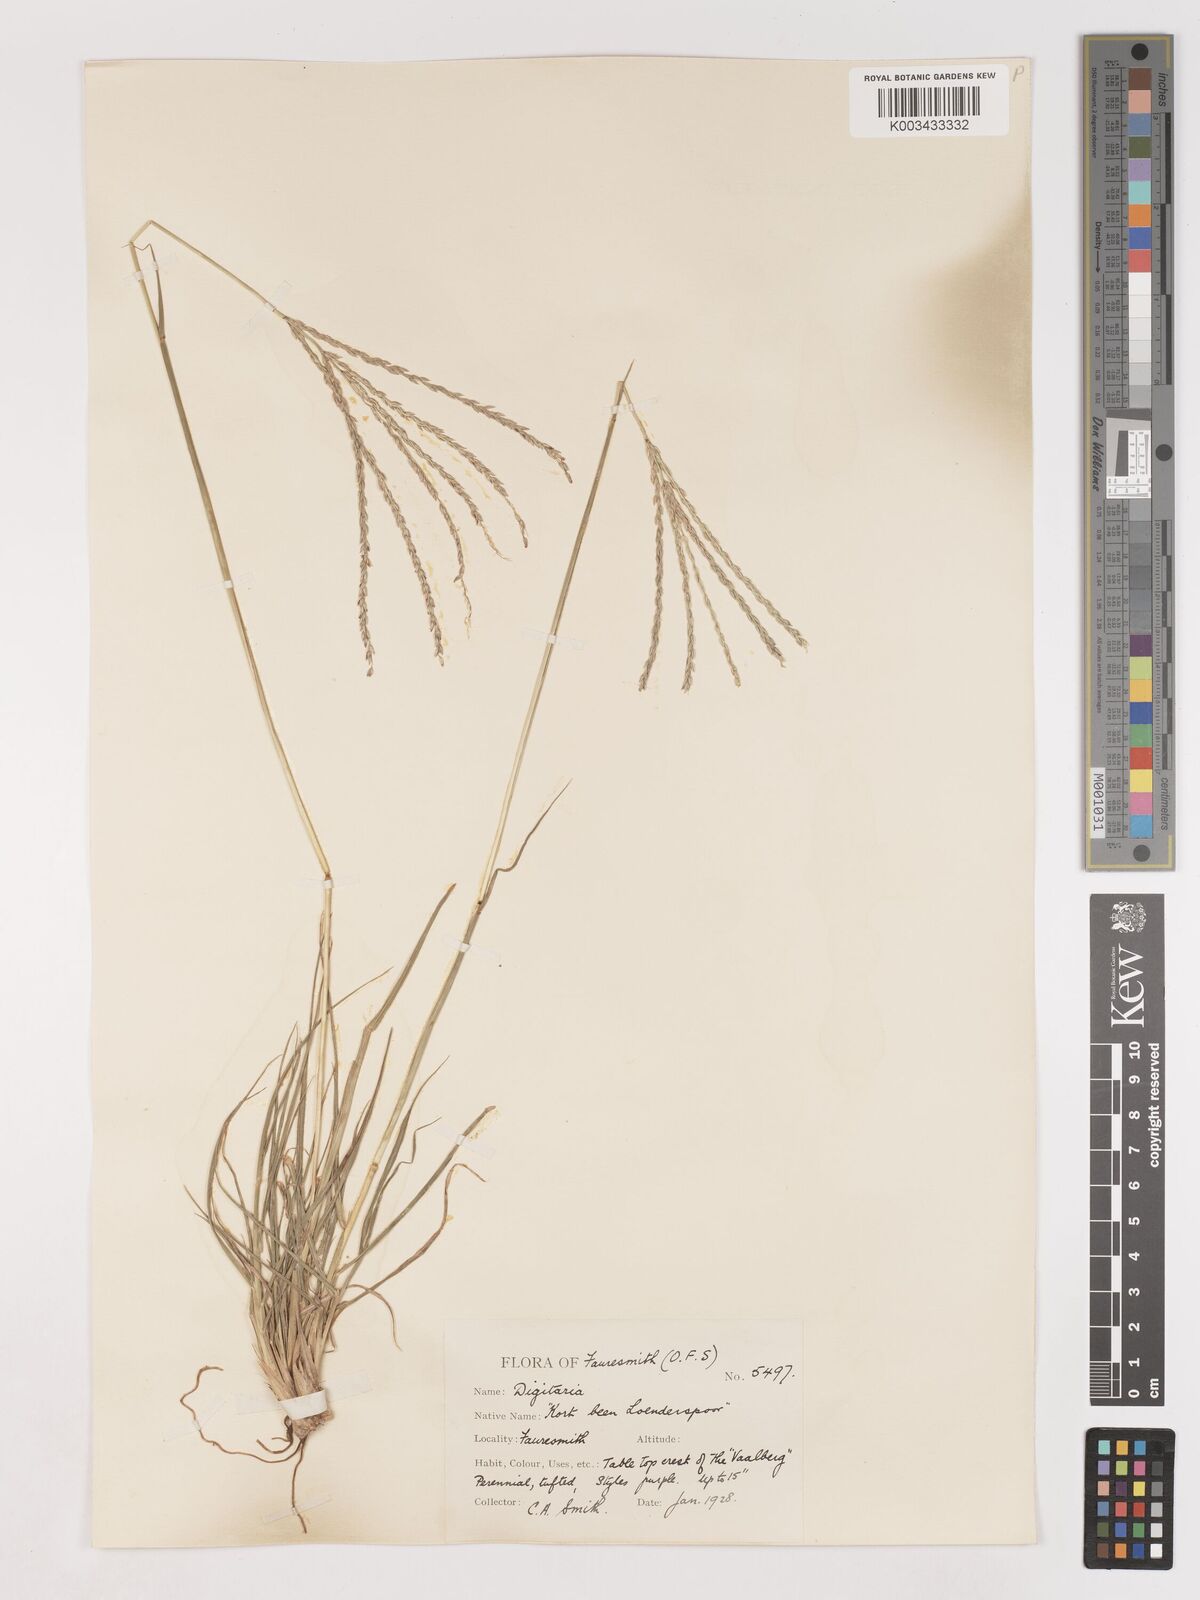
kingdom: Plantae
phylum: Tracheophyta
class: Liliopsida
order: Poales
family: Poaceae
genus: Digitaria
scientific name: Digitaria eriantha
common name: Digitgrass
